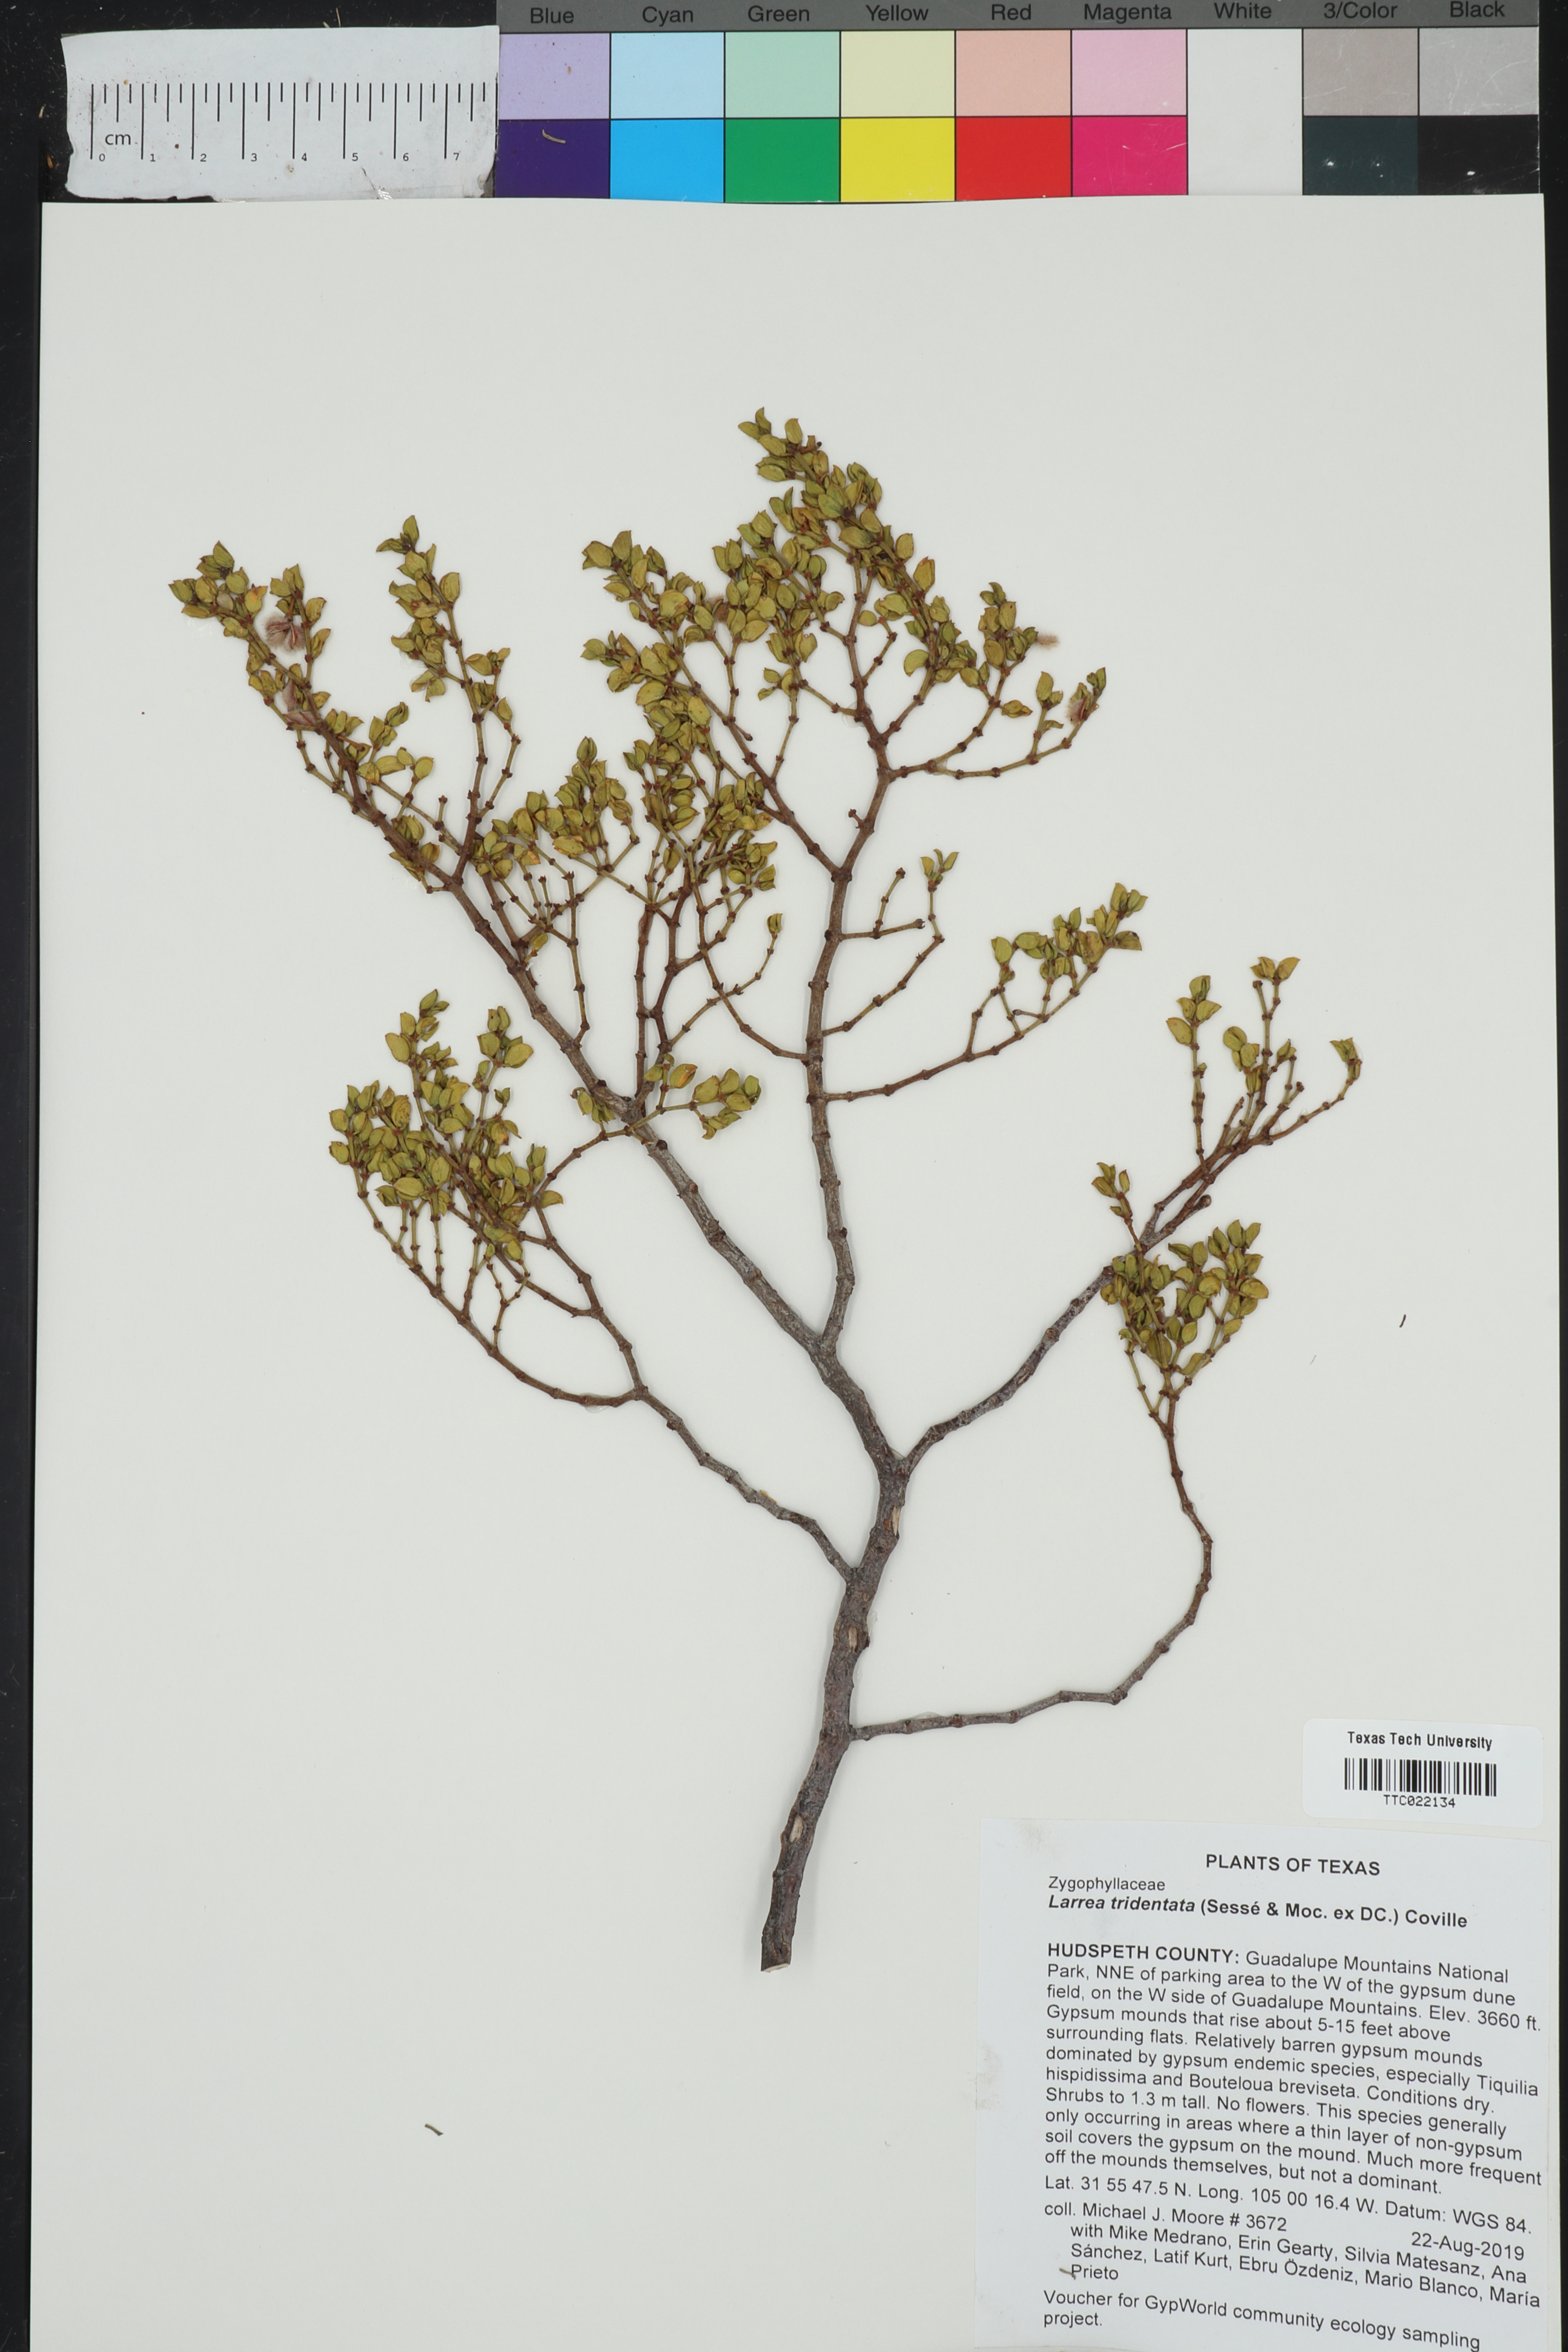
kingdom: Plantae
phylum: Tracheophyta
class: Magnoliopsida
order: Zygophyllales
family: Zygophyllaceae
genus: Larrea
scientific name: Larrea tridentata
